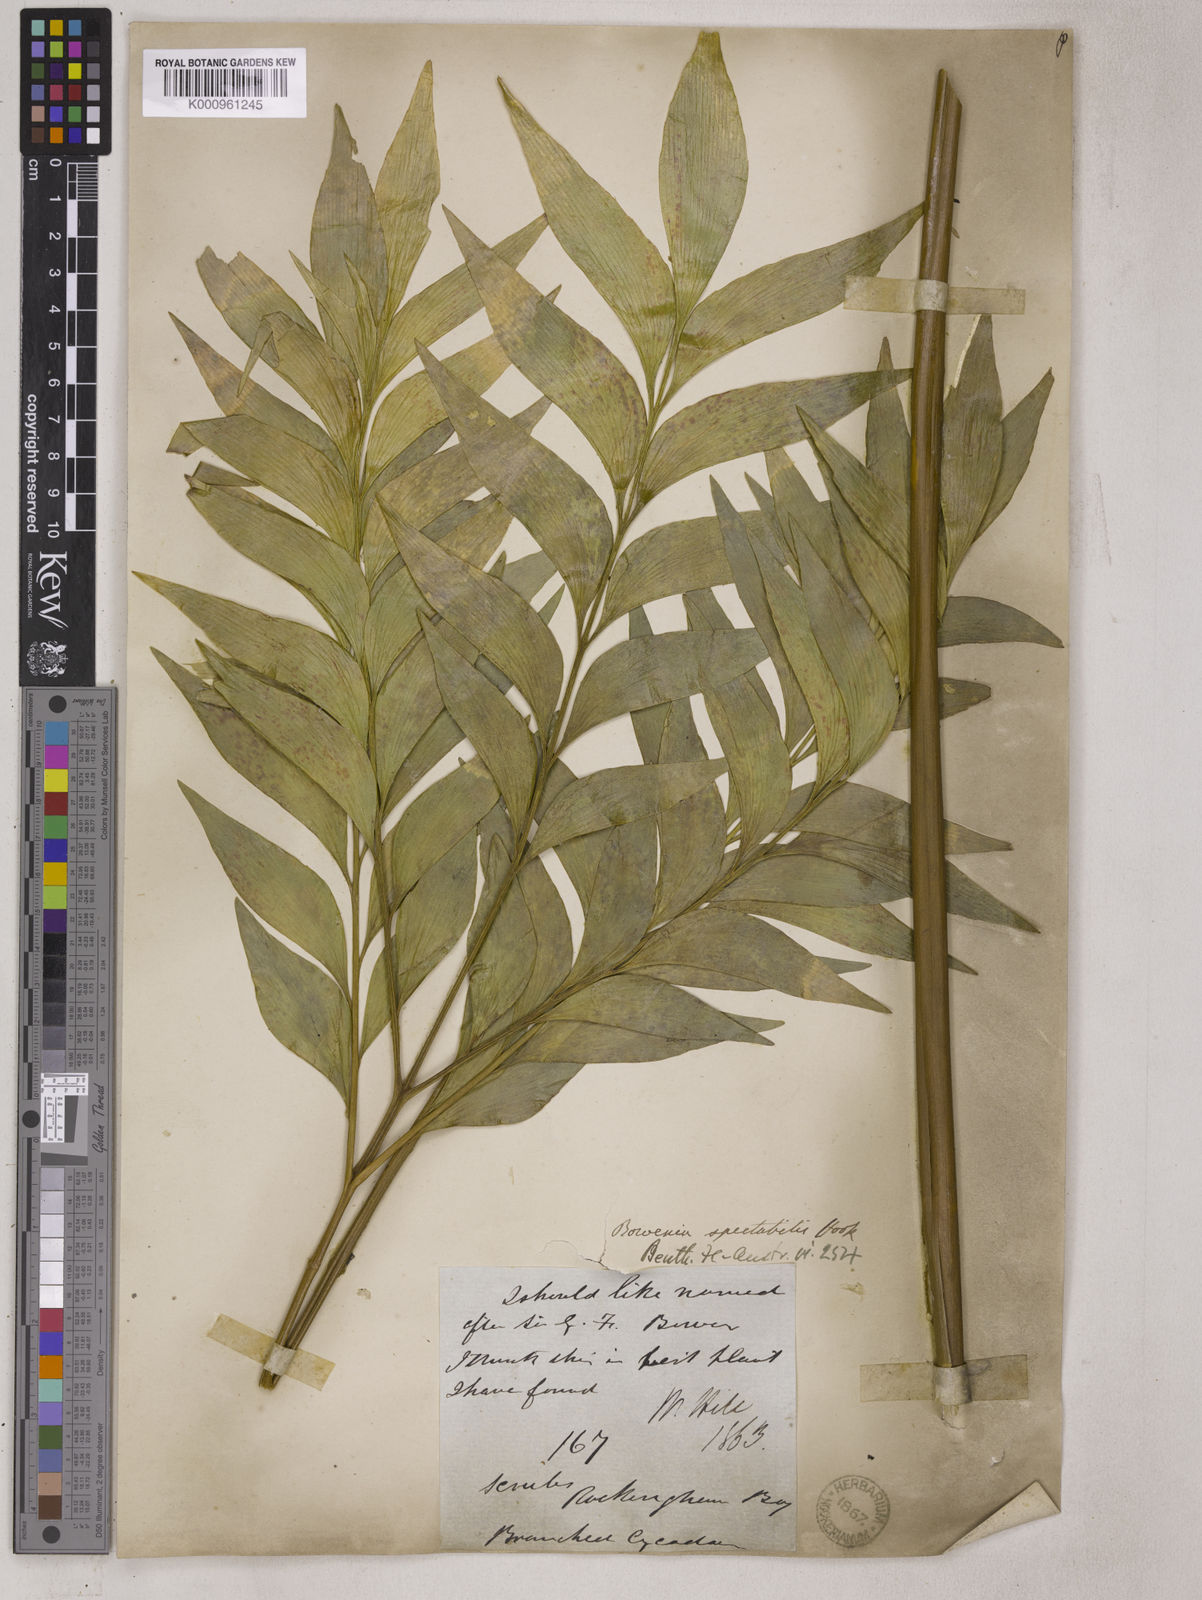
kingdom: Plantae
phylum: Tracheophyta
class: Cycadopsida
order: Cycadales
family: Zamiaceae
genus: Bowenia
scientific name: Bowenia spectabilis
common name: Zamia-fern
